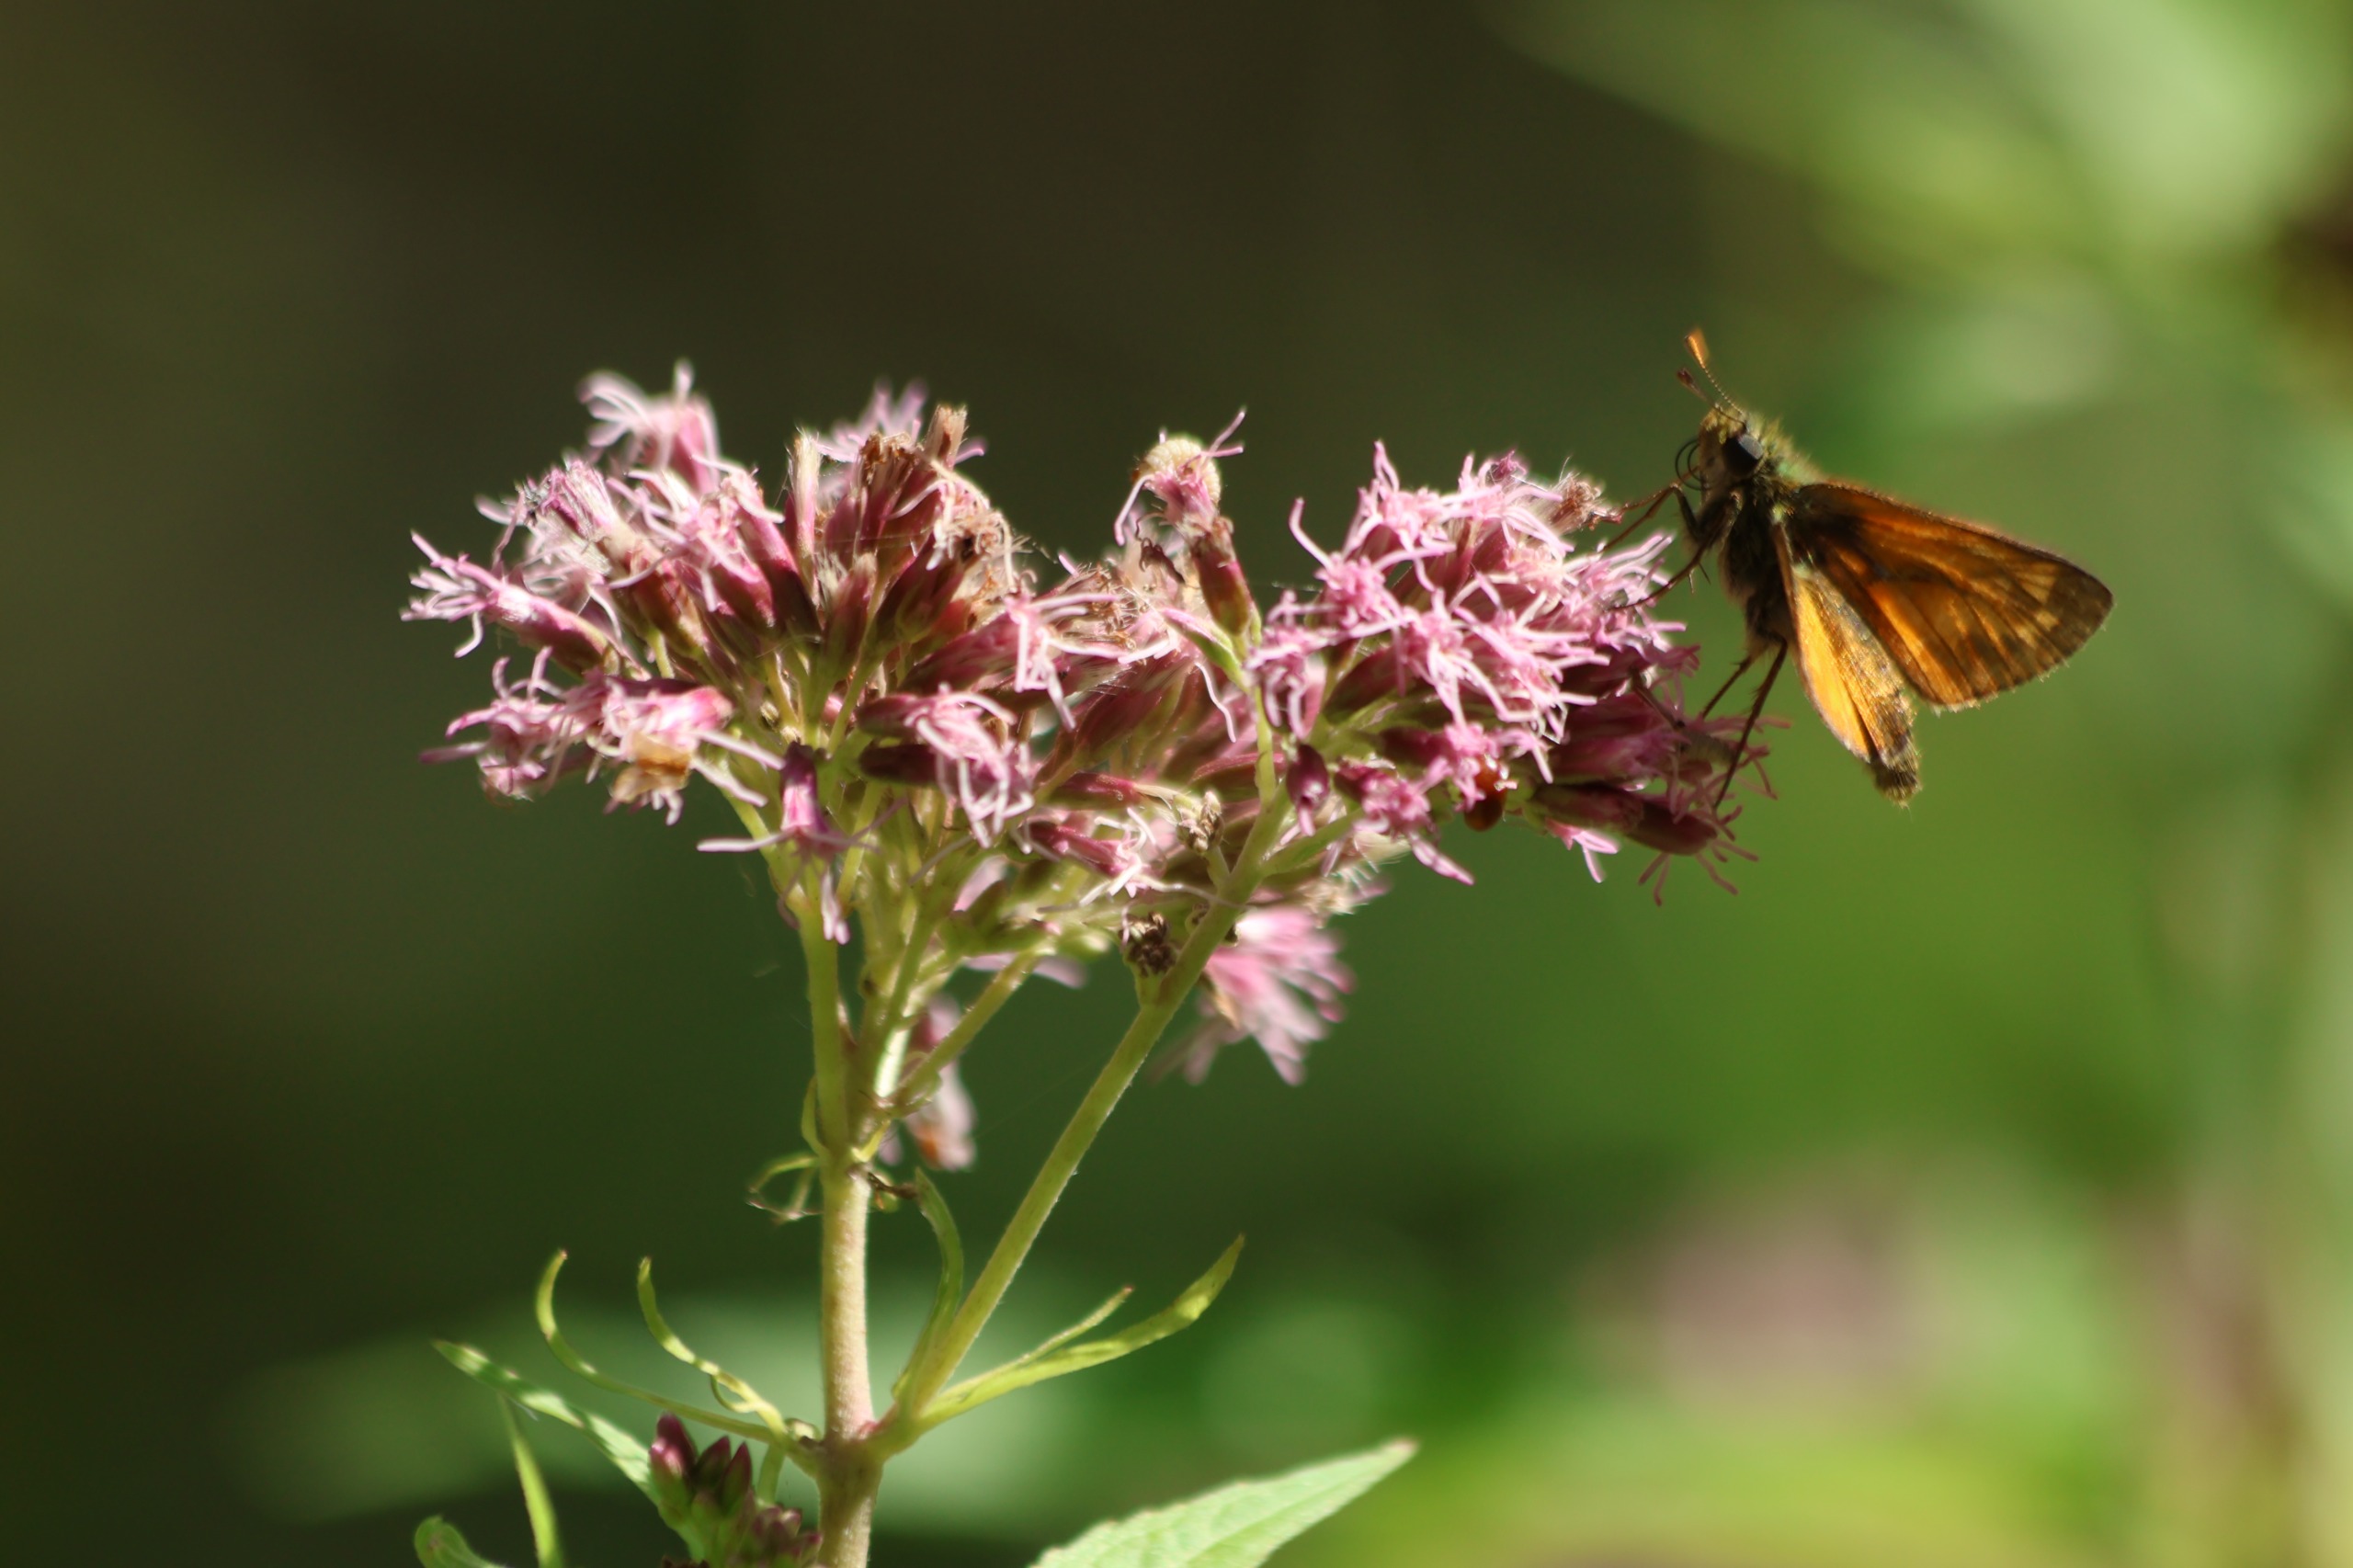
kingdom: Animalia
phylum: Arthropoda
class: Insecta
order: Lepidoptera
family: Hesperiidae
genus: Ochlodes
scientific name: Ochlodes venata
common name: Stor bredpande
